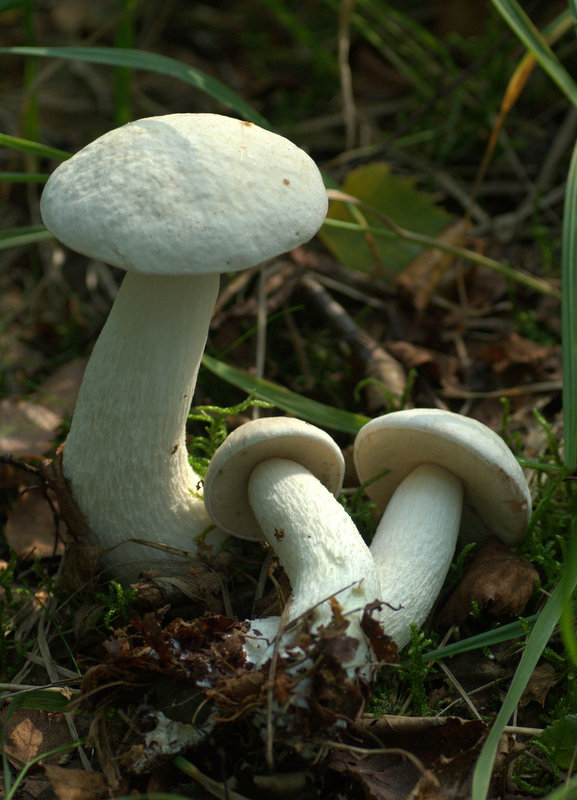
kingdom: Fungi
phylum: Basidiomycota
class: Agaricomycetes
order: Boletales
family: Boletaceae
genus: Leccinum
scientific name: Leccinum scabrum
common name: hvid skælrørhat
